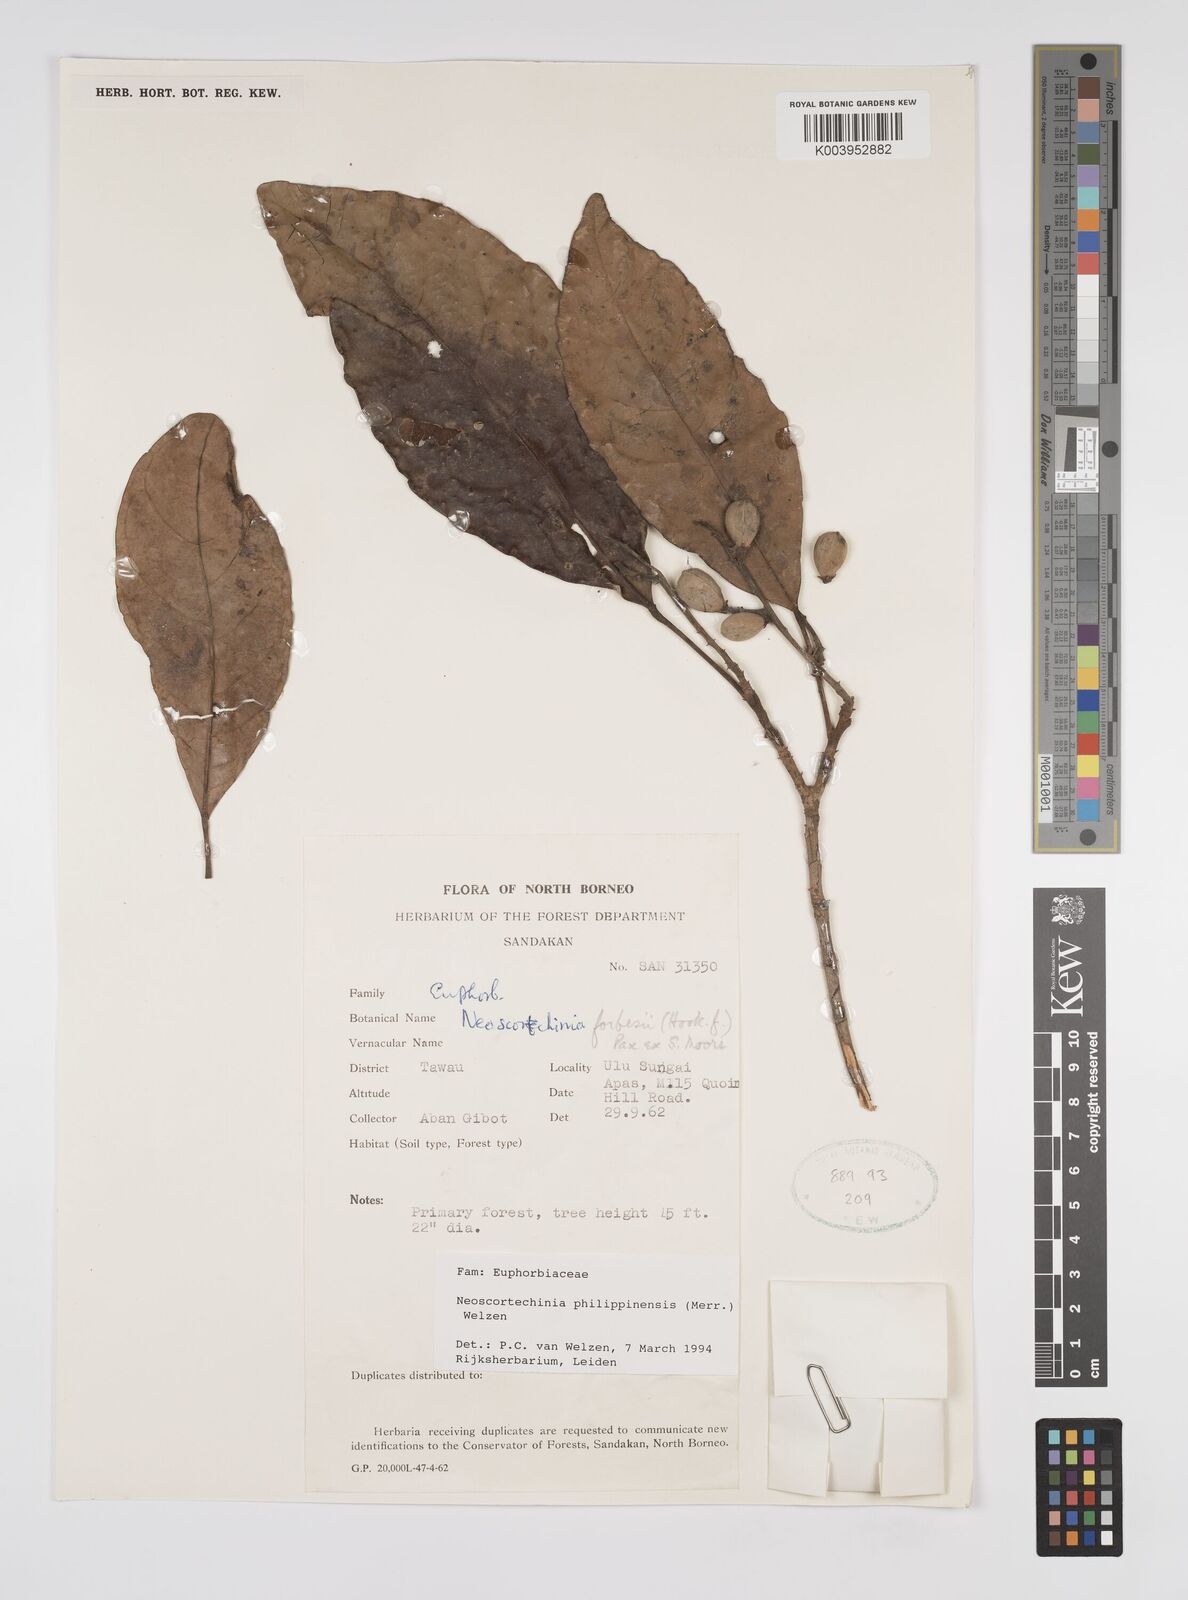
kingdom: Plantae
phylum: Tracheophyta
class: Magnoliopsida
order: Malpighiales
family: Euphorbiaceae
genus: Neoscortechinia
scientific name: Neoscortechinia philippinensis
